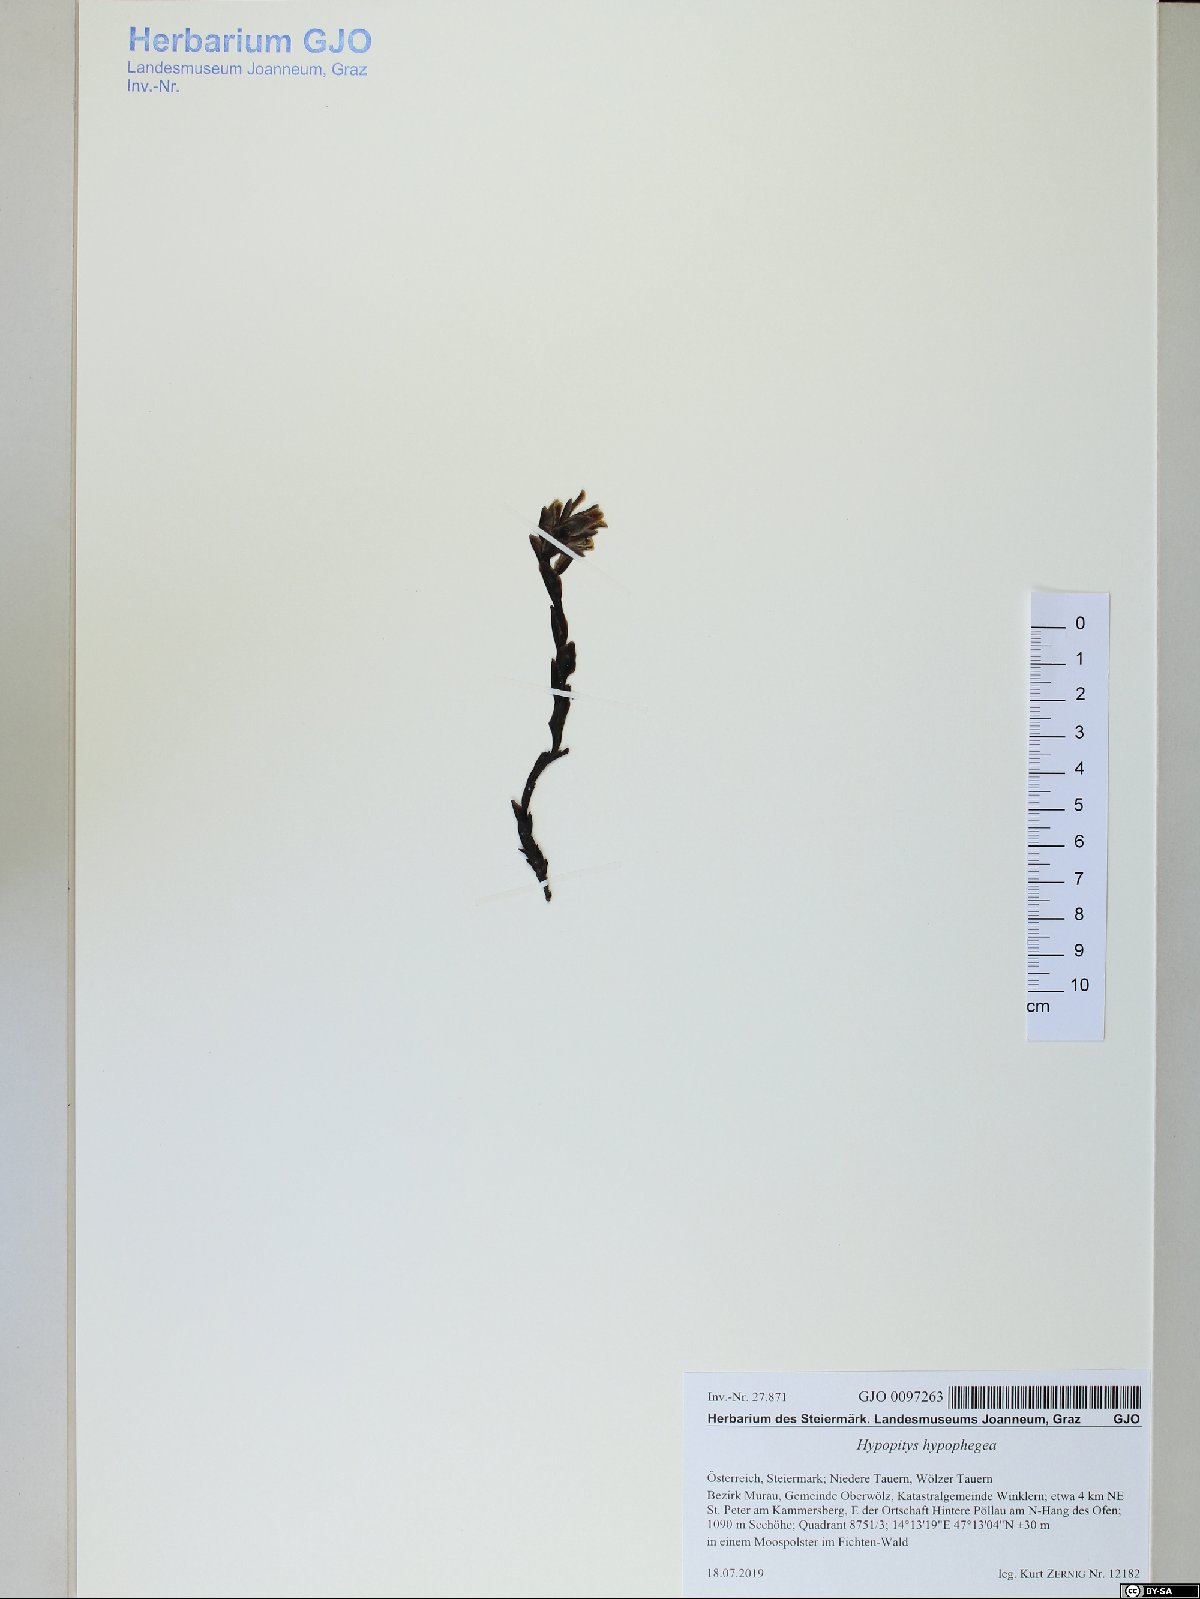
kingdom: Plantae
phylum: Tracheophyta
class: Magnoliopsida
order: Ericales
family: Ericaceae
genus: Hypopitys
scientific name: Hypopitys hypophegea
